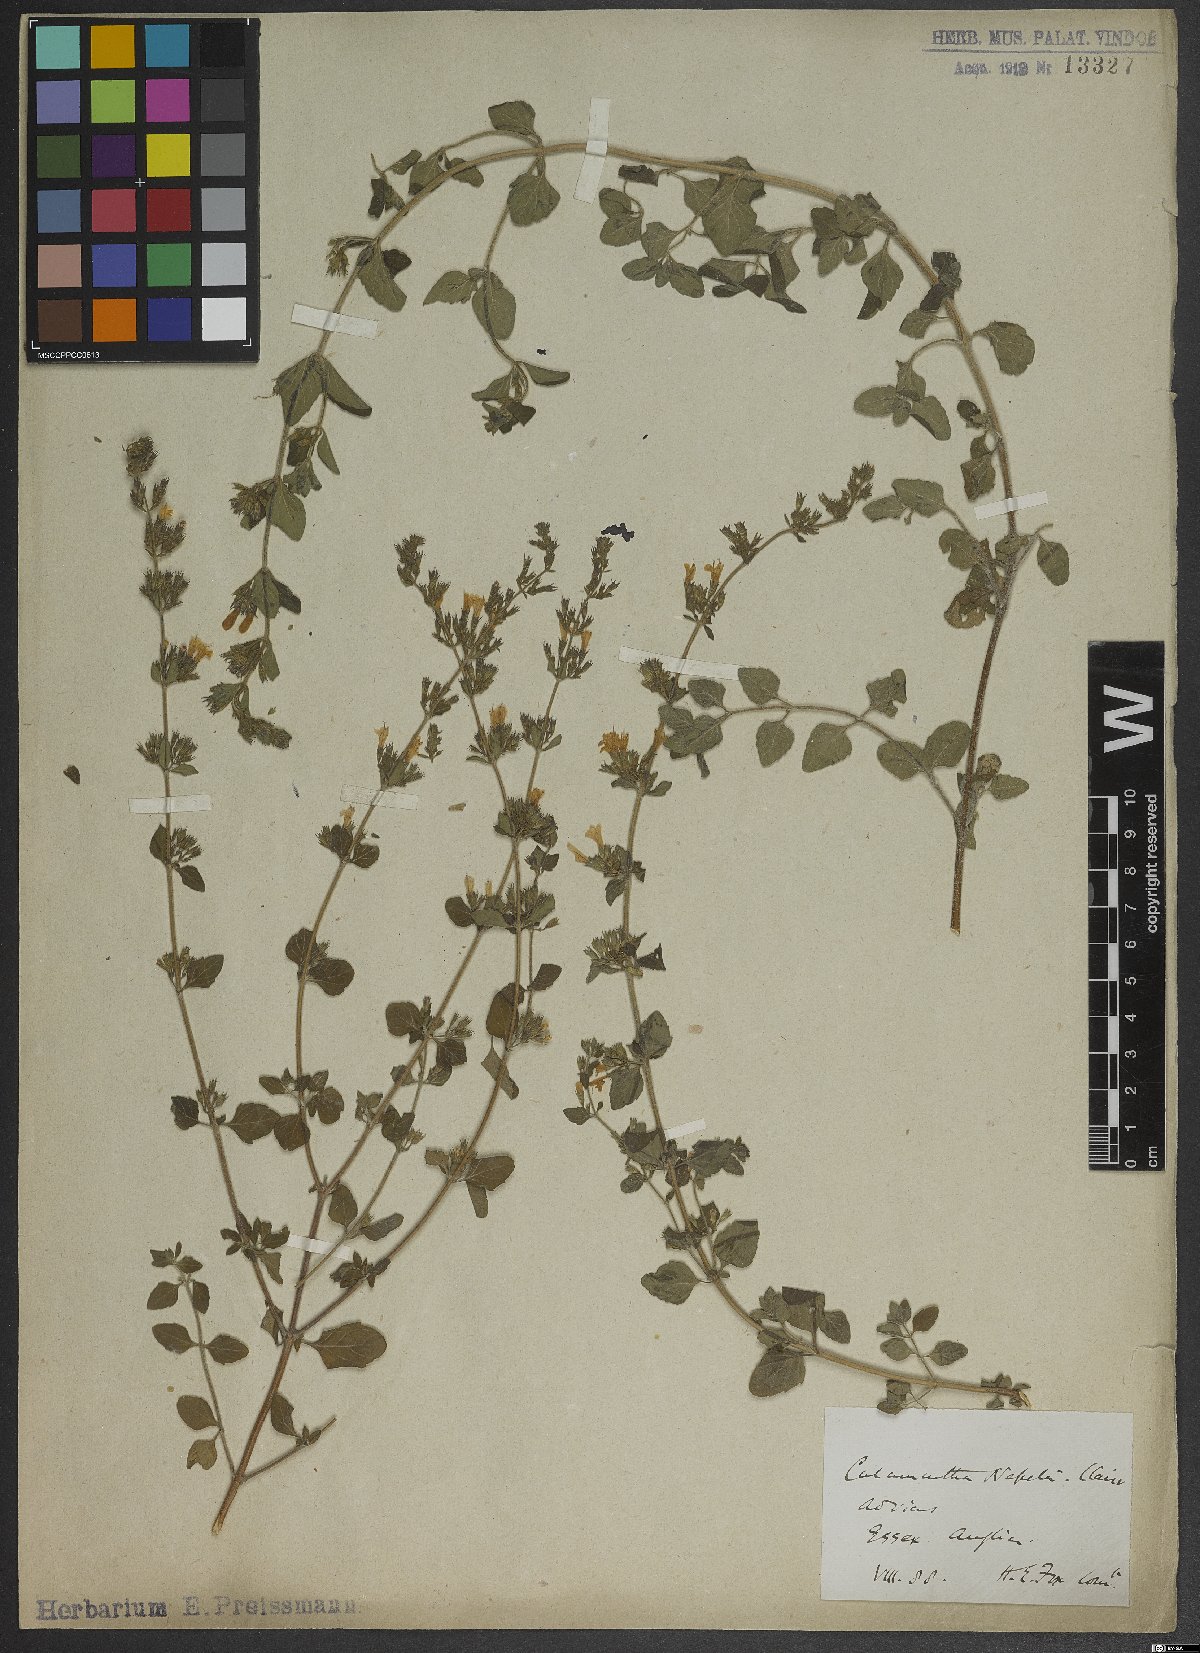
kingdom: Plantae
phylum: Tracheophyta
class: Magnoliopsida
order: Lamiales
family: Lamiaceae
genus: Clinopodium
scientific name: Clinopodium nepeta
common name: Lesser calamint
